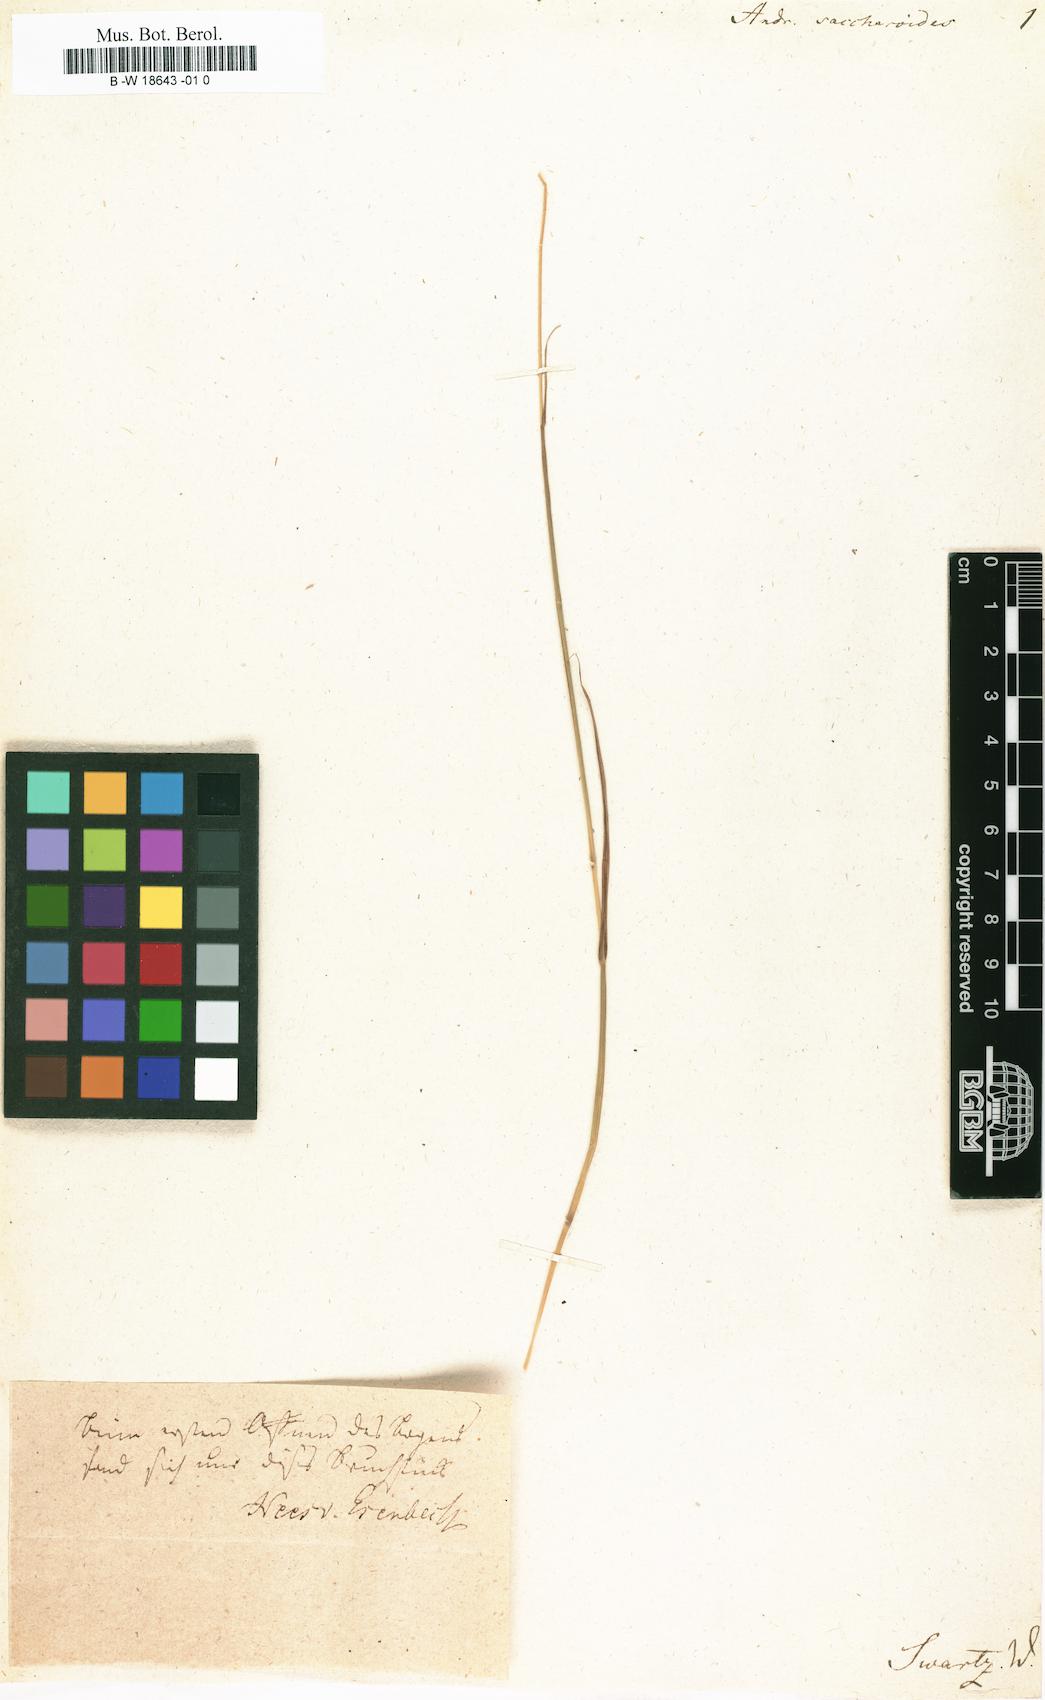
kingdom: Plantae
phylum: Tracheophyta
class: Liliopsida
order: Poales
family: Poaceae
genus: Bothriochloa
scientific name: Bothriochloa saccharoides
